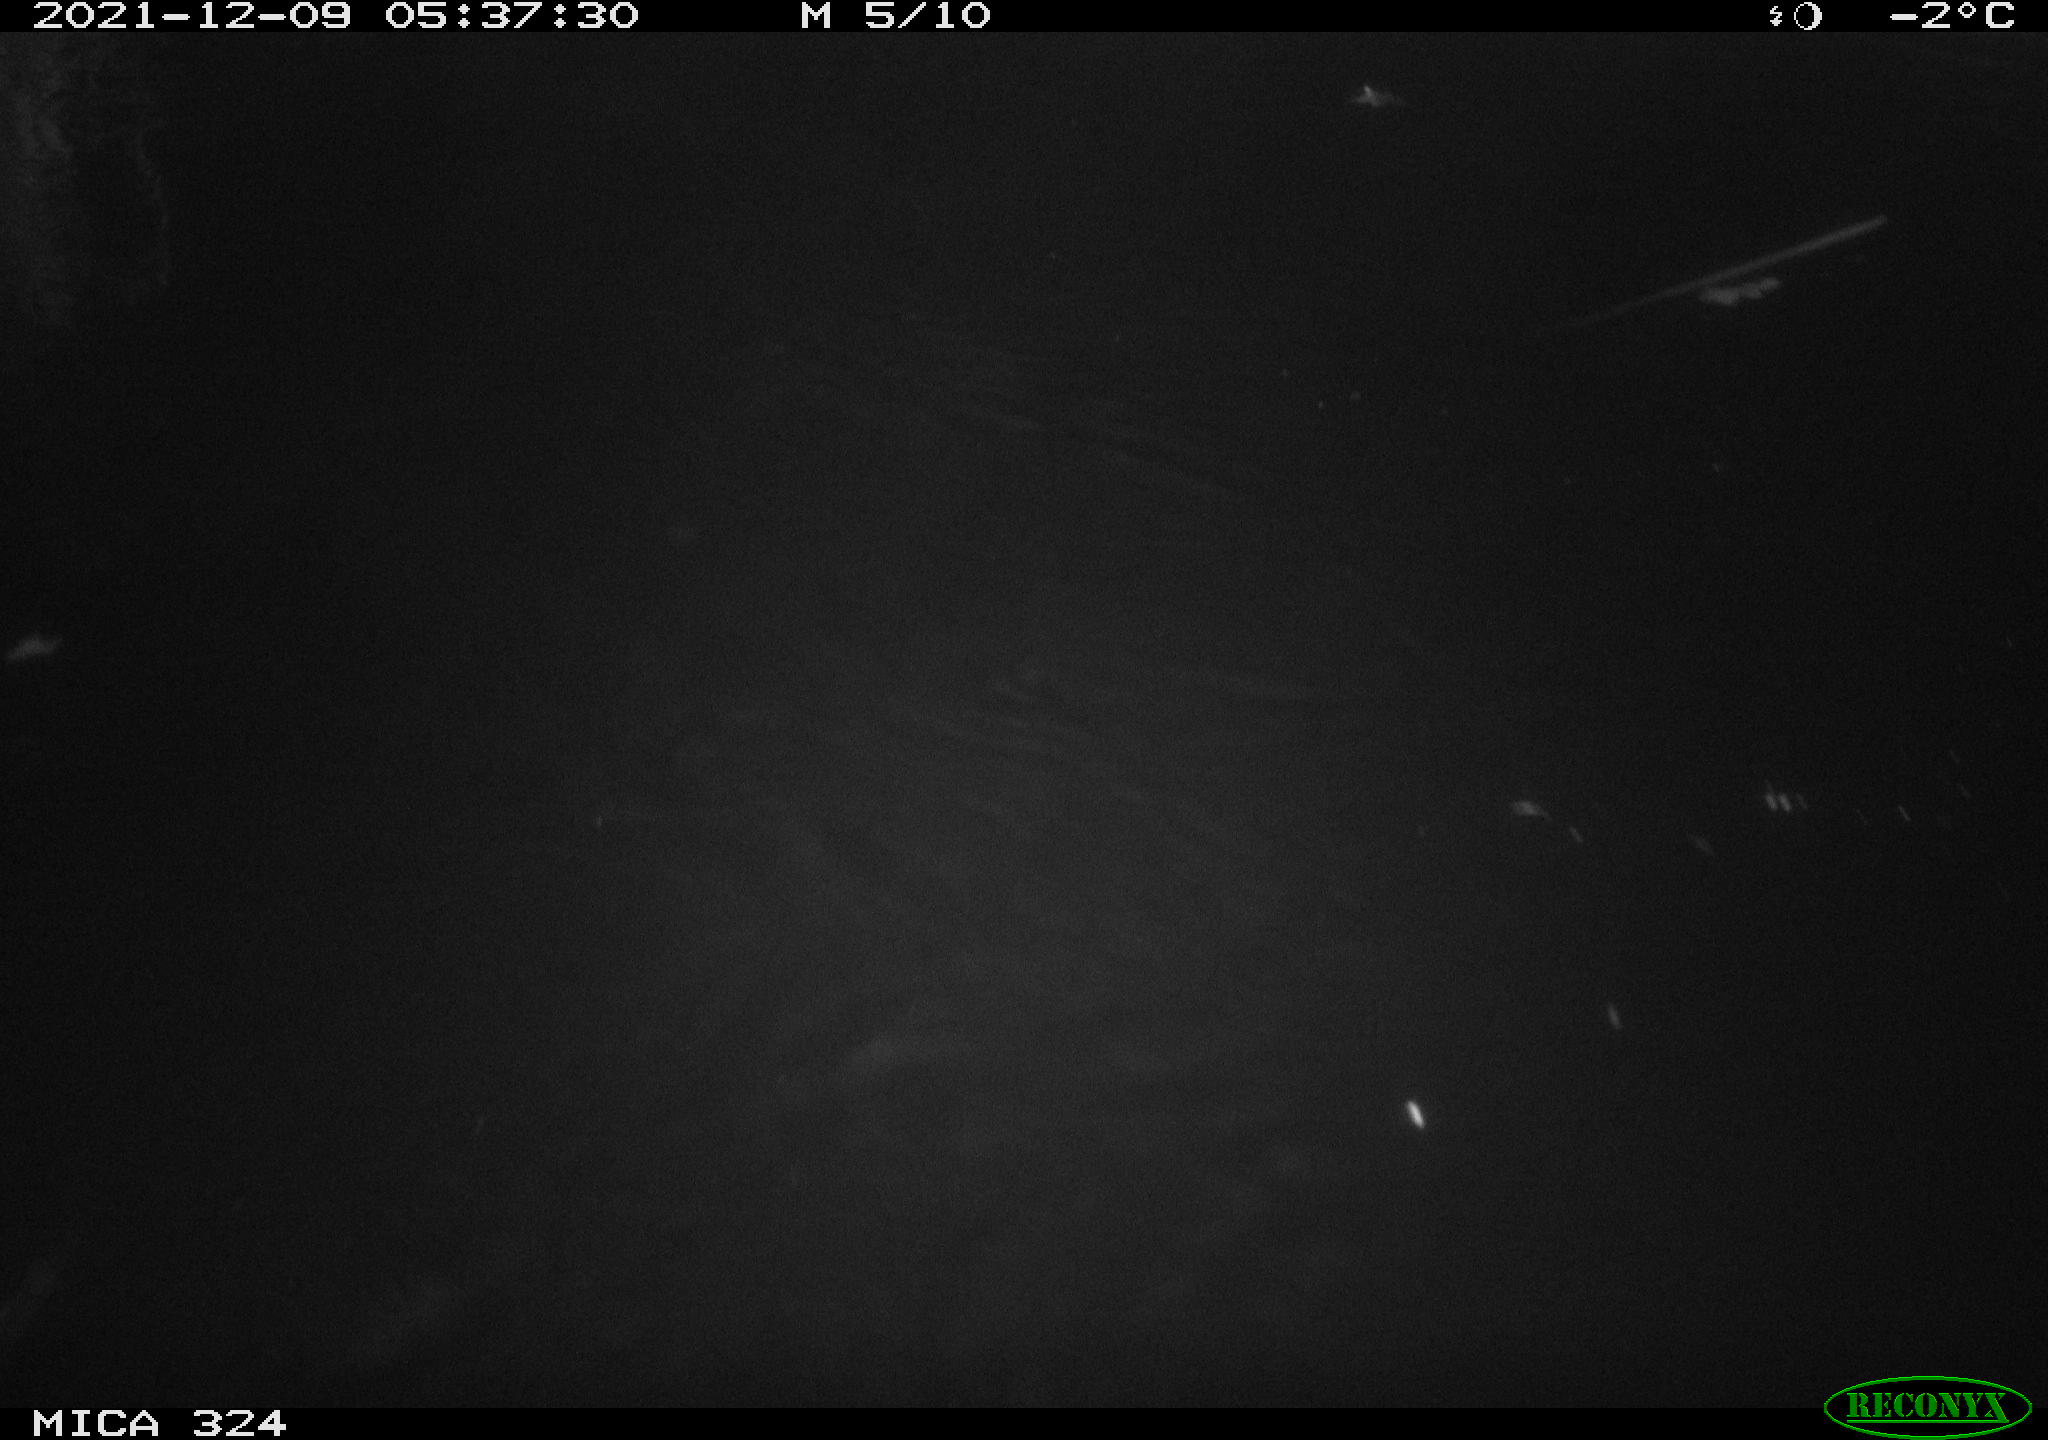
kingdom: Animalia
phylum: Chordata
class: Mammalia
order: Rodentia
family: Cricetidae
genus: Ondatra
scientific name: Ondatra zibethicus
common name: Muskrat
